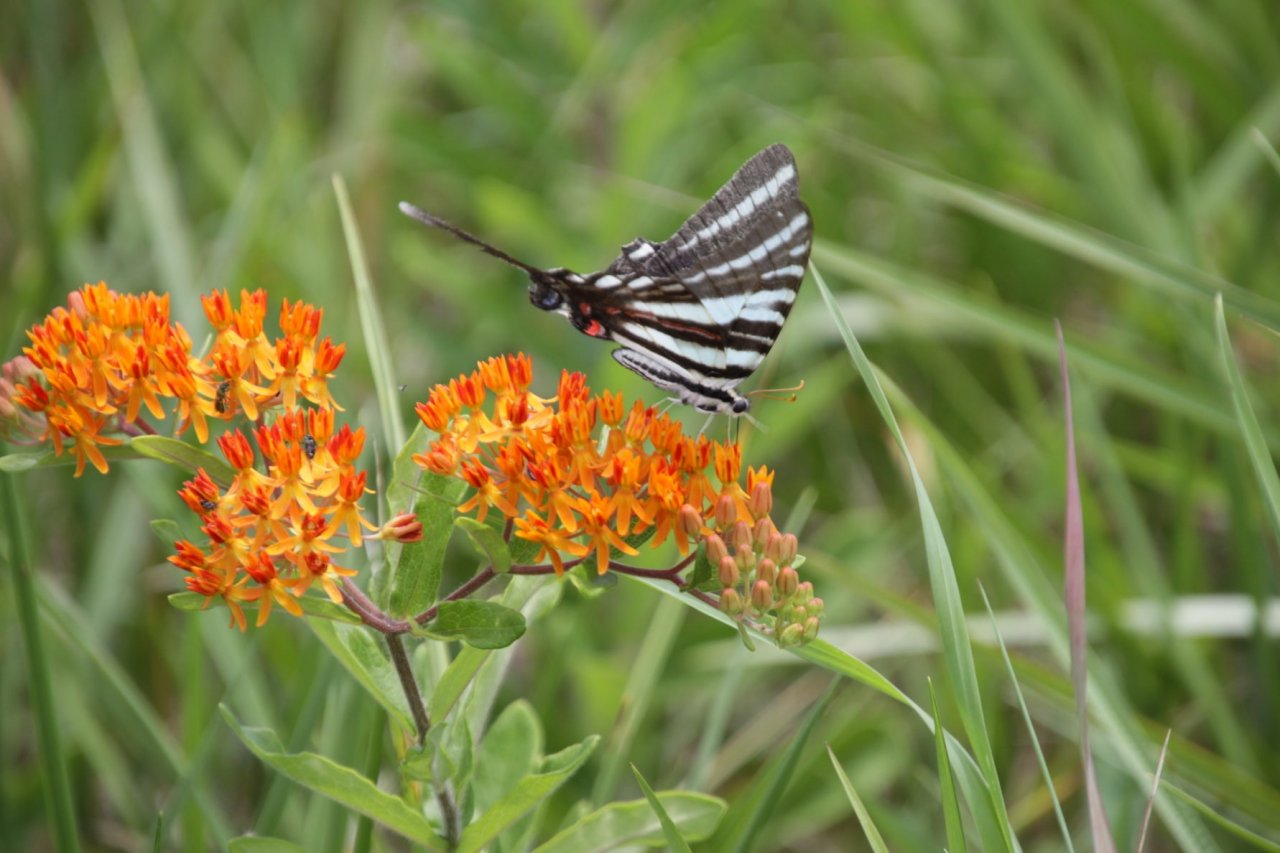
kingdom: Animalia
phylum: Arthropoda
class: Insecta
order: Lepidoptera
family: Papilionidae
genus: Protographium
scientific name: Protographium marcellus
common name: Zebra Swallowtail
